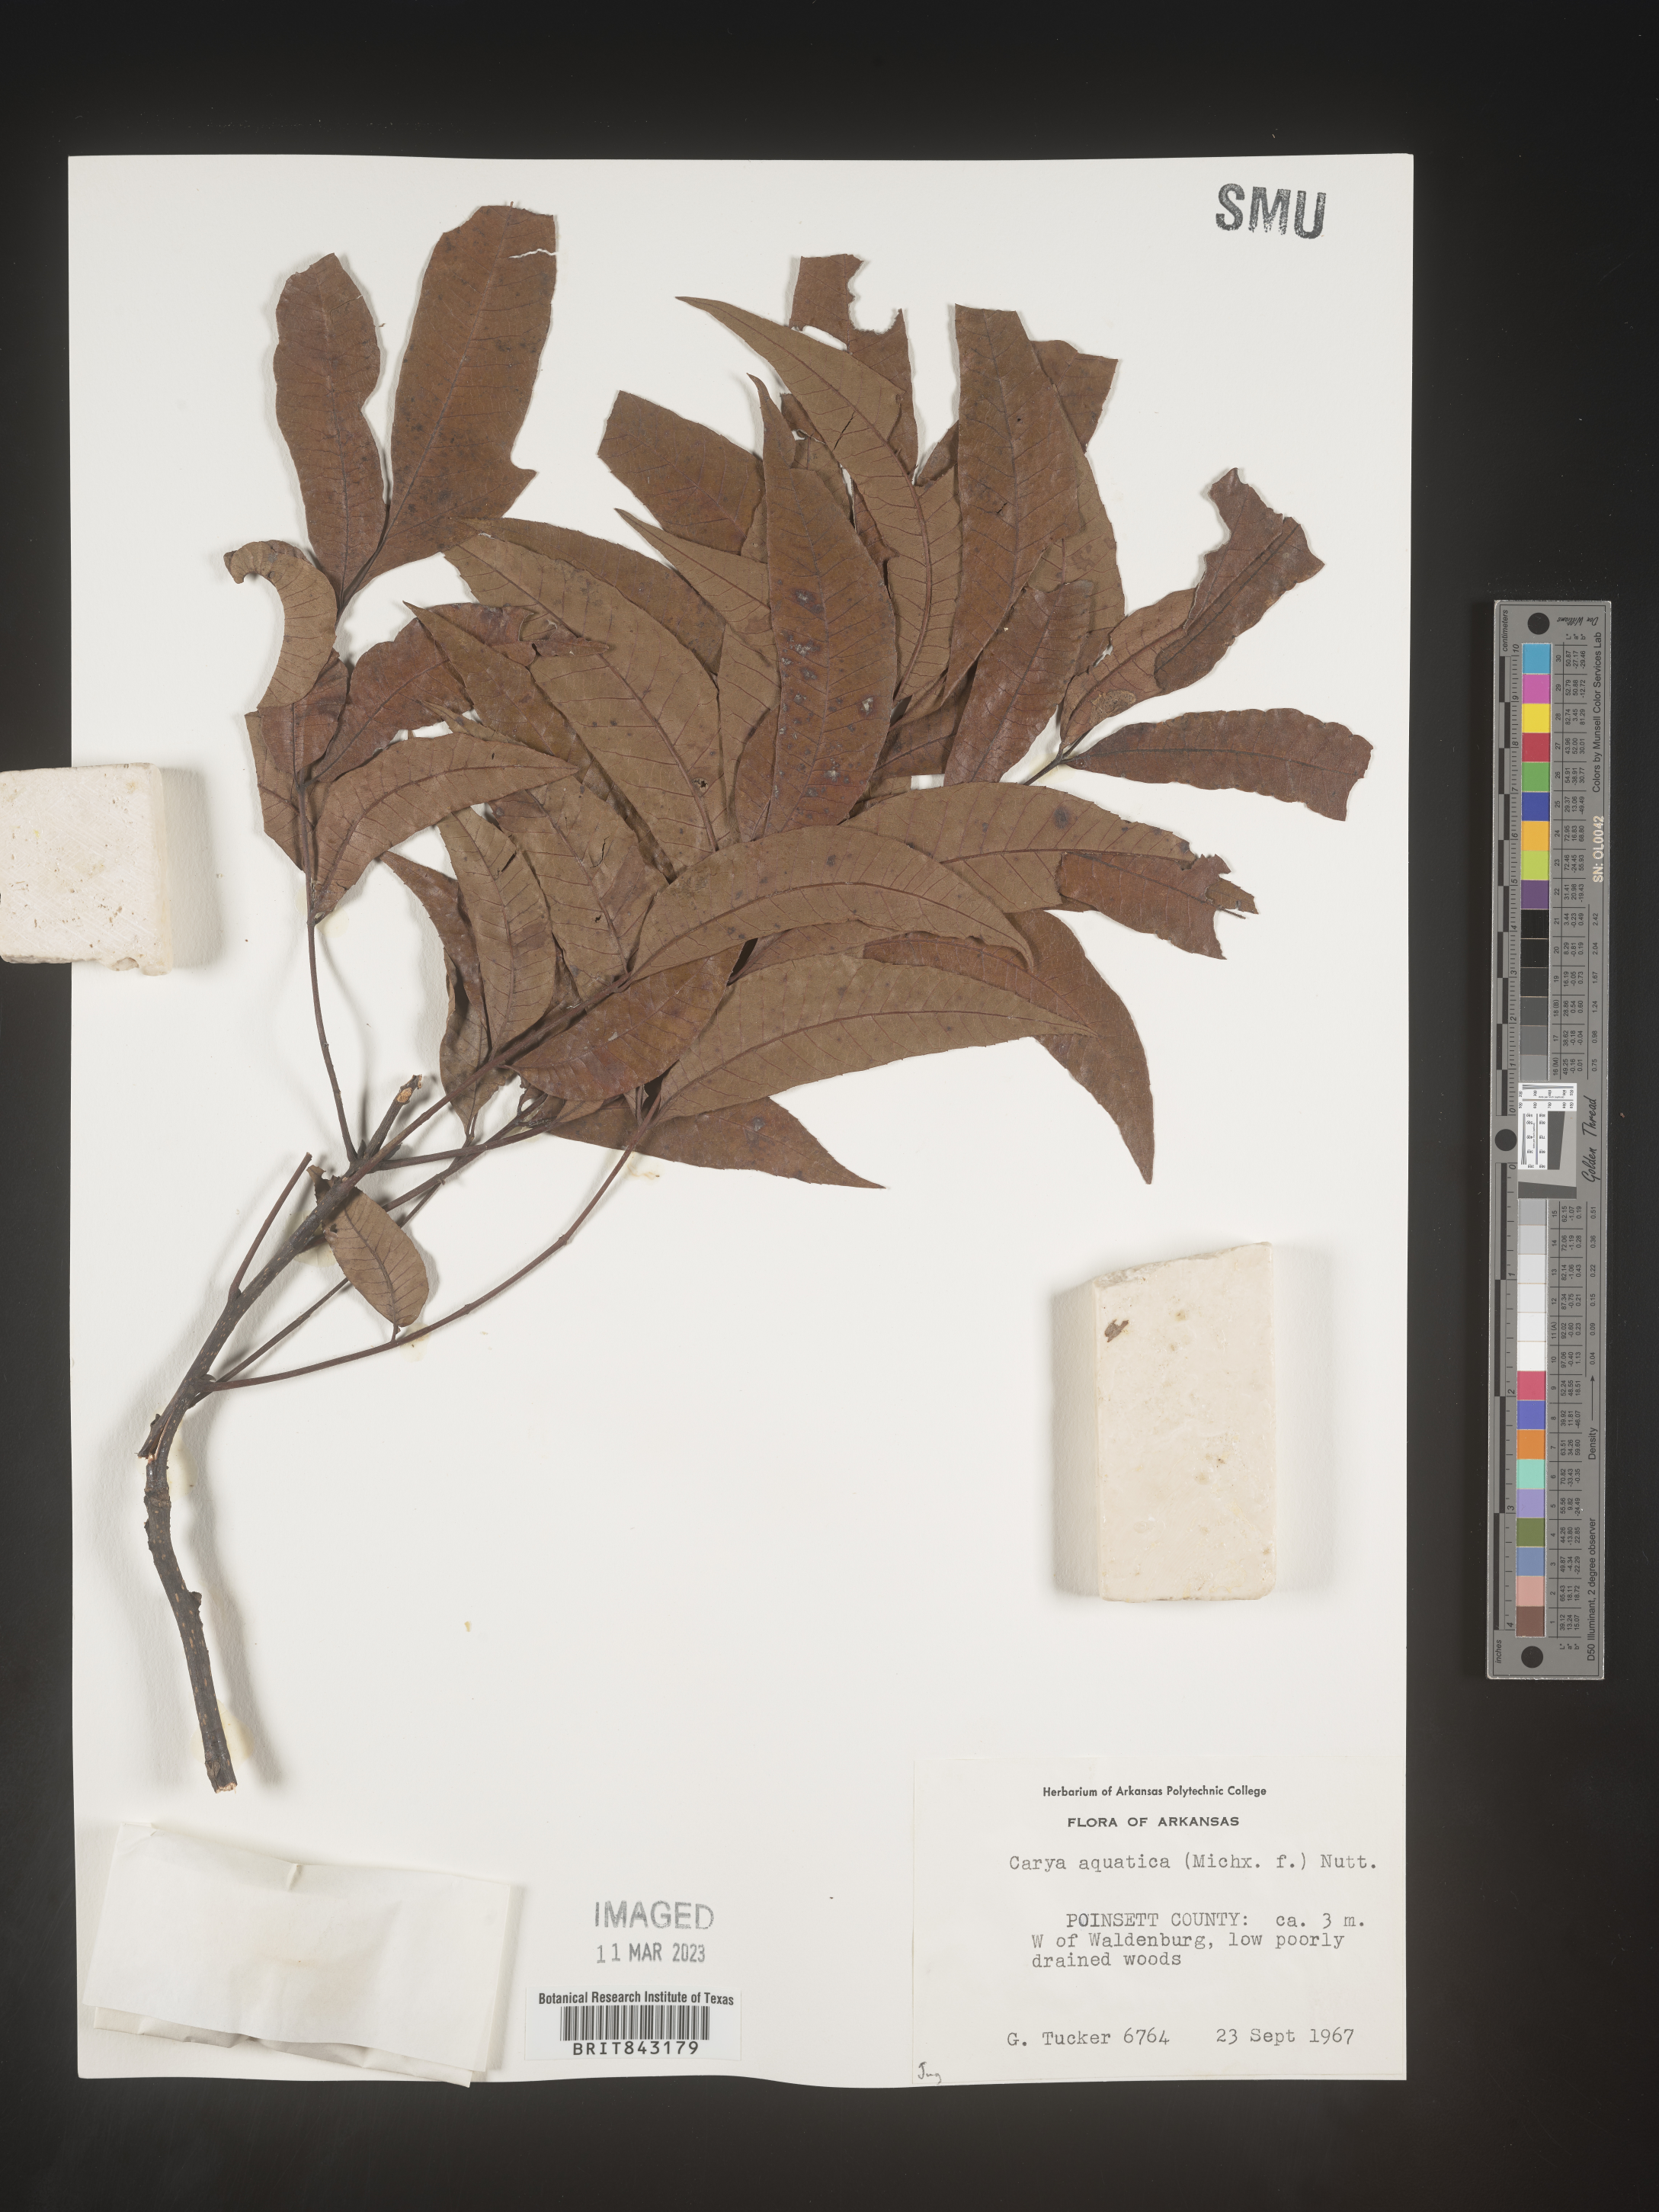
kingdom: Plantae
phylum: Tracheophyta
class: Magnoliopsida
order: Fagales
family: Juglandaceae
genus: Carya
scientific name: Carya aquatica
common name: Water hickory
